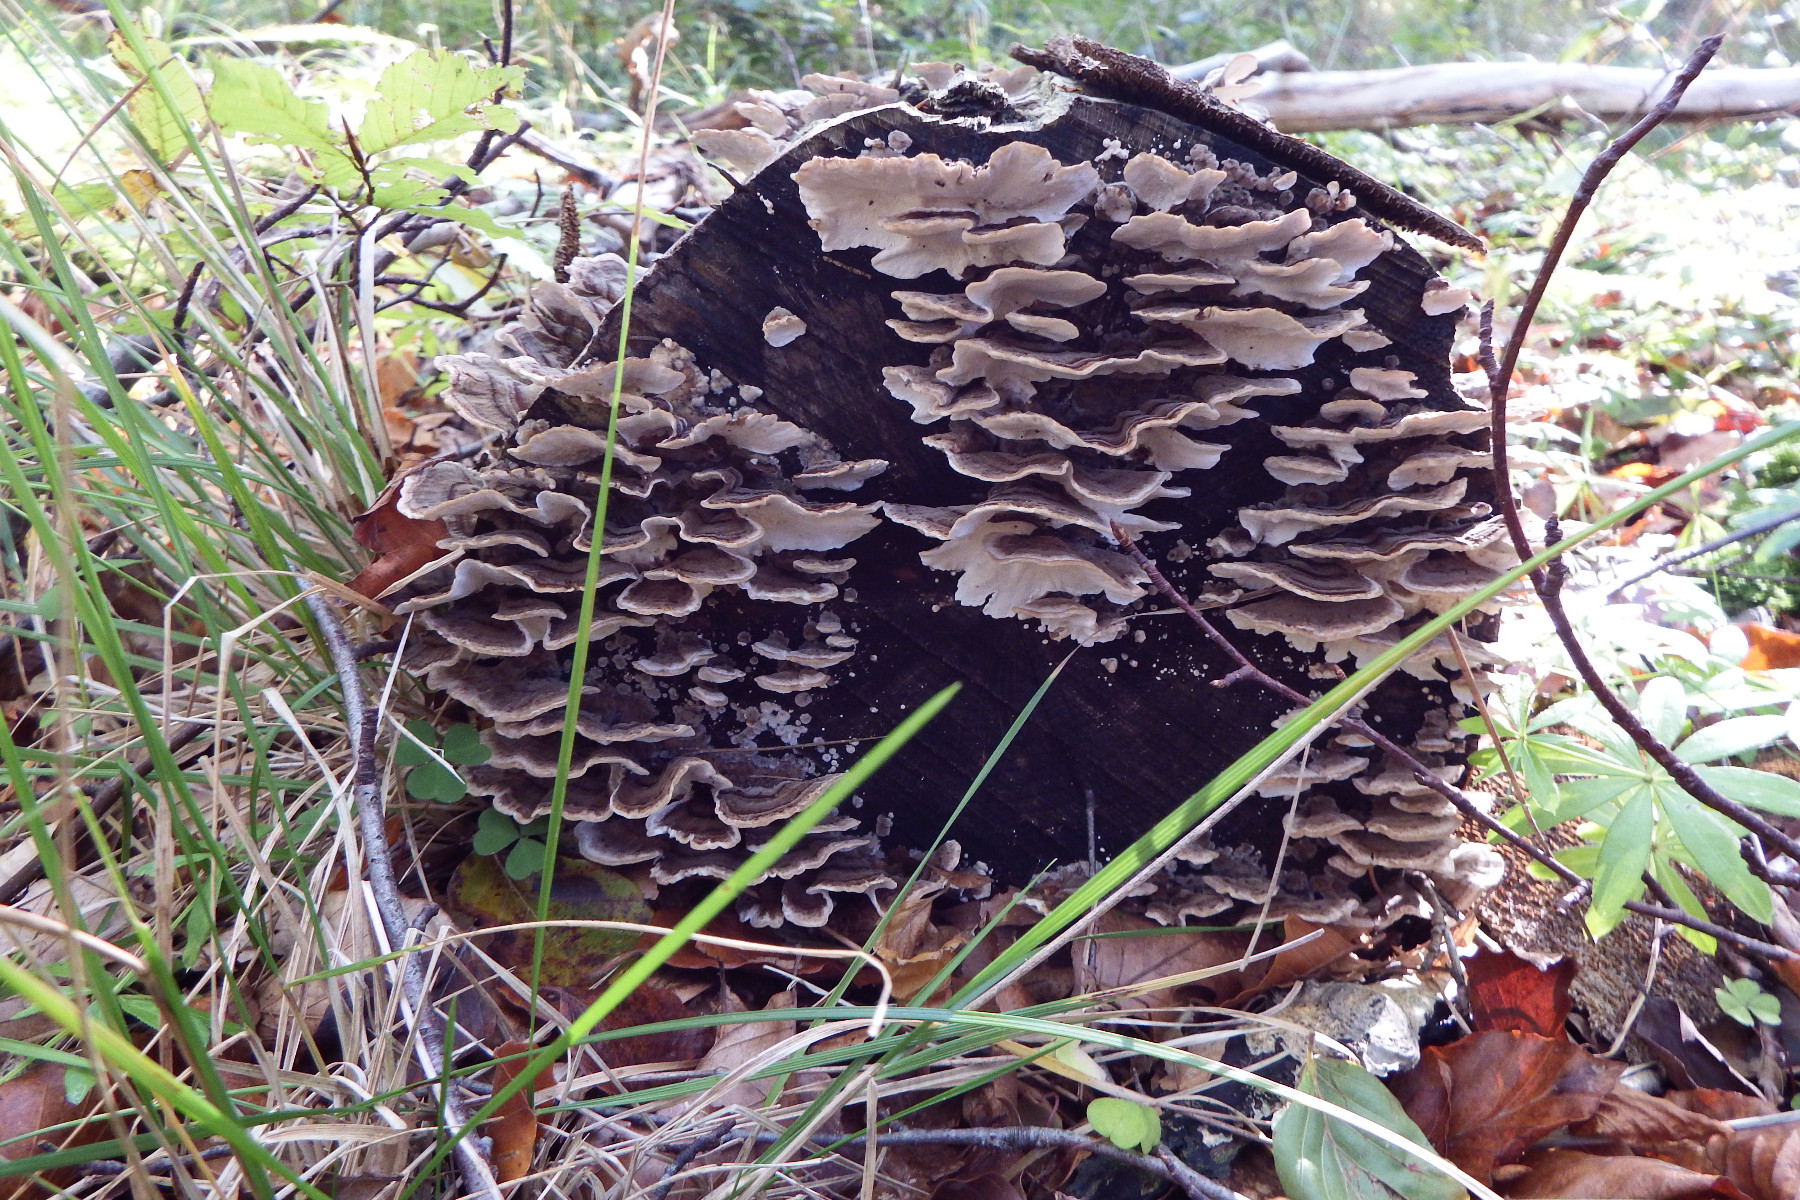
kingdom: Fungi
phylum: Basidiomycota
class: Agaricomycetes
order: Polyporales
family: Polyporaceae
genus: Trametes
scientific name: Trametes versicolor
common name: broget læderporesvamp
